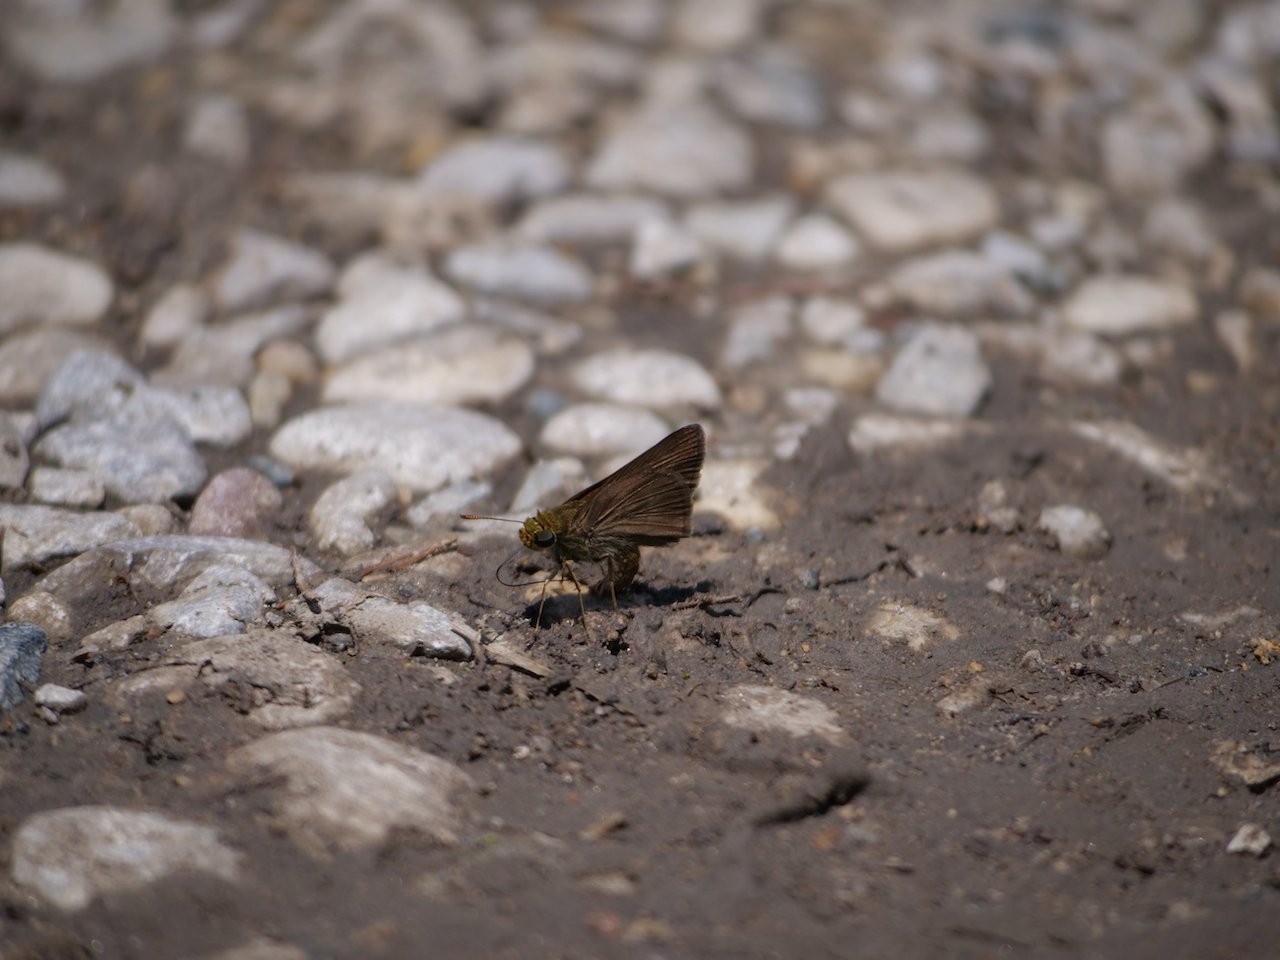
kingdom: Animalia
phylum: Arthropoda
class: Insecta
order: Lepidoptera
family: Hesperiidae
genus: Euphyes
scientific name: Euphyes vestris
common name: Dun Skipper
